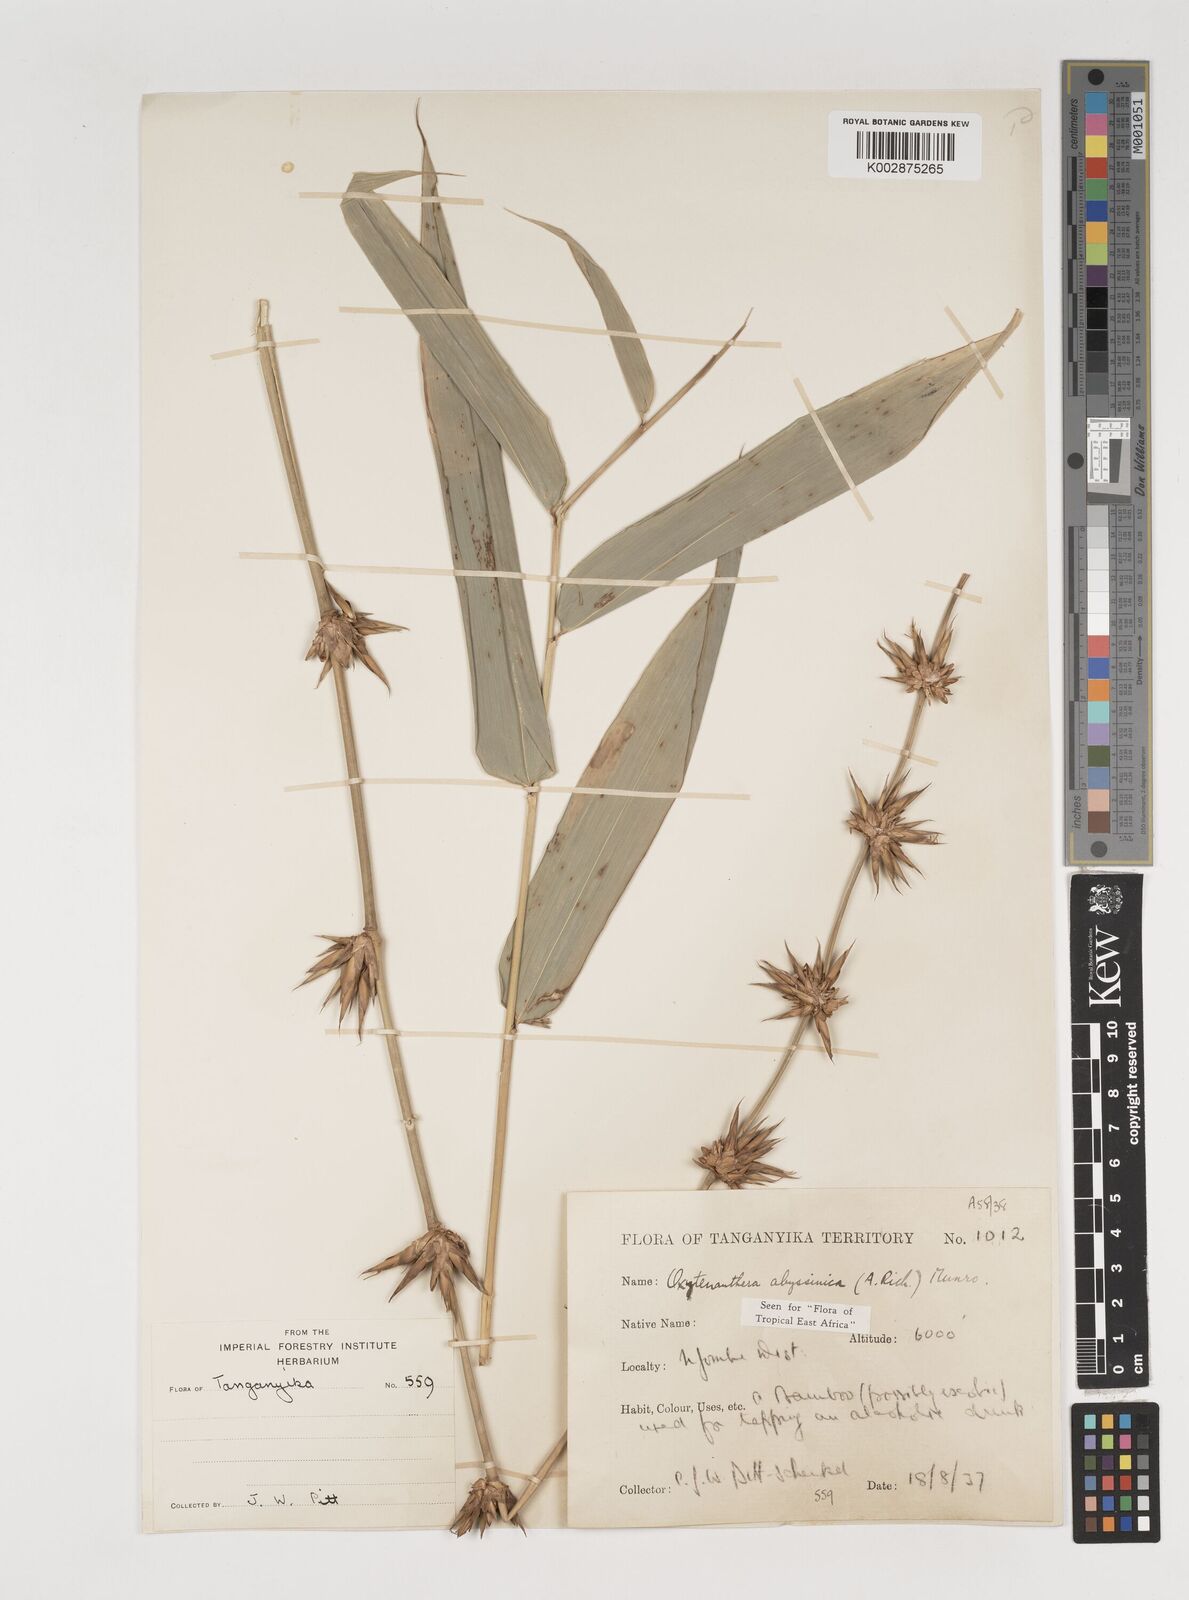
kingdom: Plantae
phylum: Tracheophyta
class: Liliopsida
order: Poales
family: Poaceae
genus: Oxytenanthera
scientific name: Oxytenanthera
